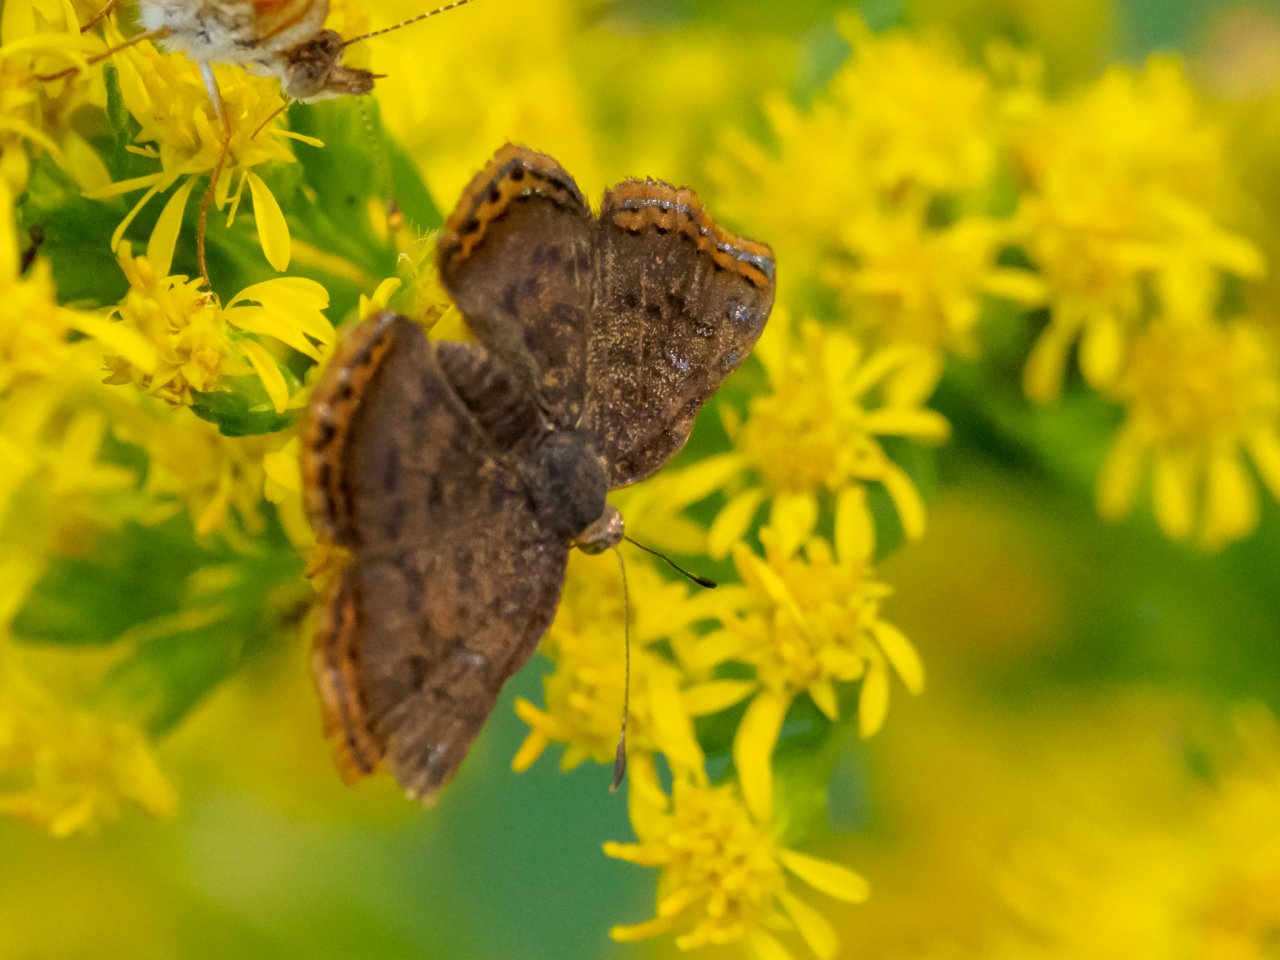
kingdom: Animalia
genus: Caria
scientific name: Caria ino
